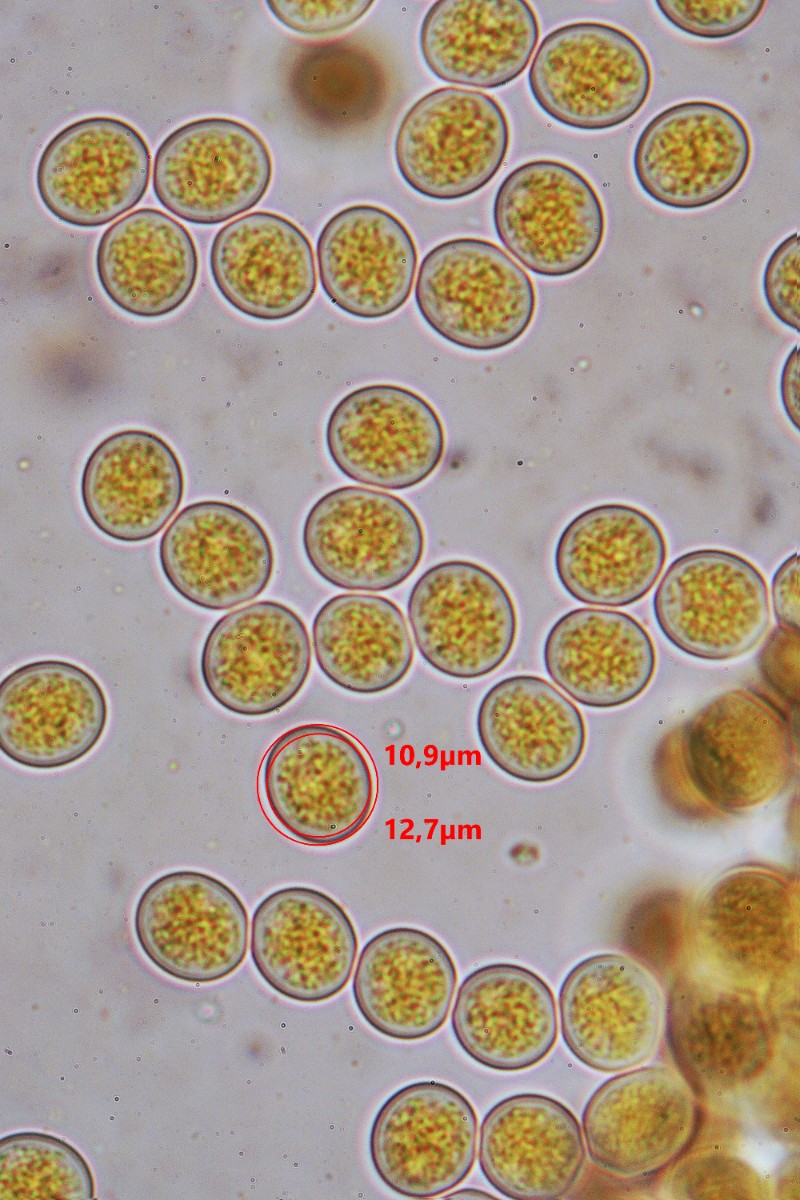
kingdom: Fungi
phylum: Mucoromycota
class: Mucoromycetes
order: Mucorales
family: Pilobolaceae
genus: Pilobolus
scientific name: Pilobolus lentiger
